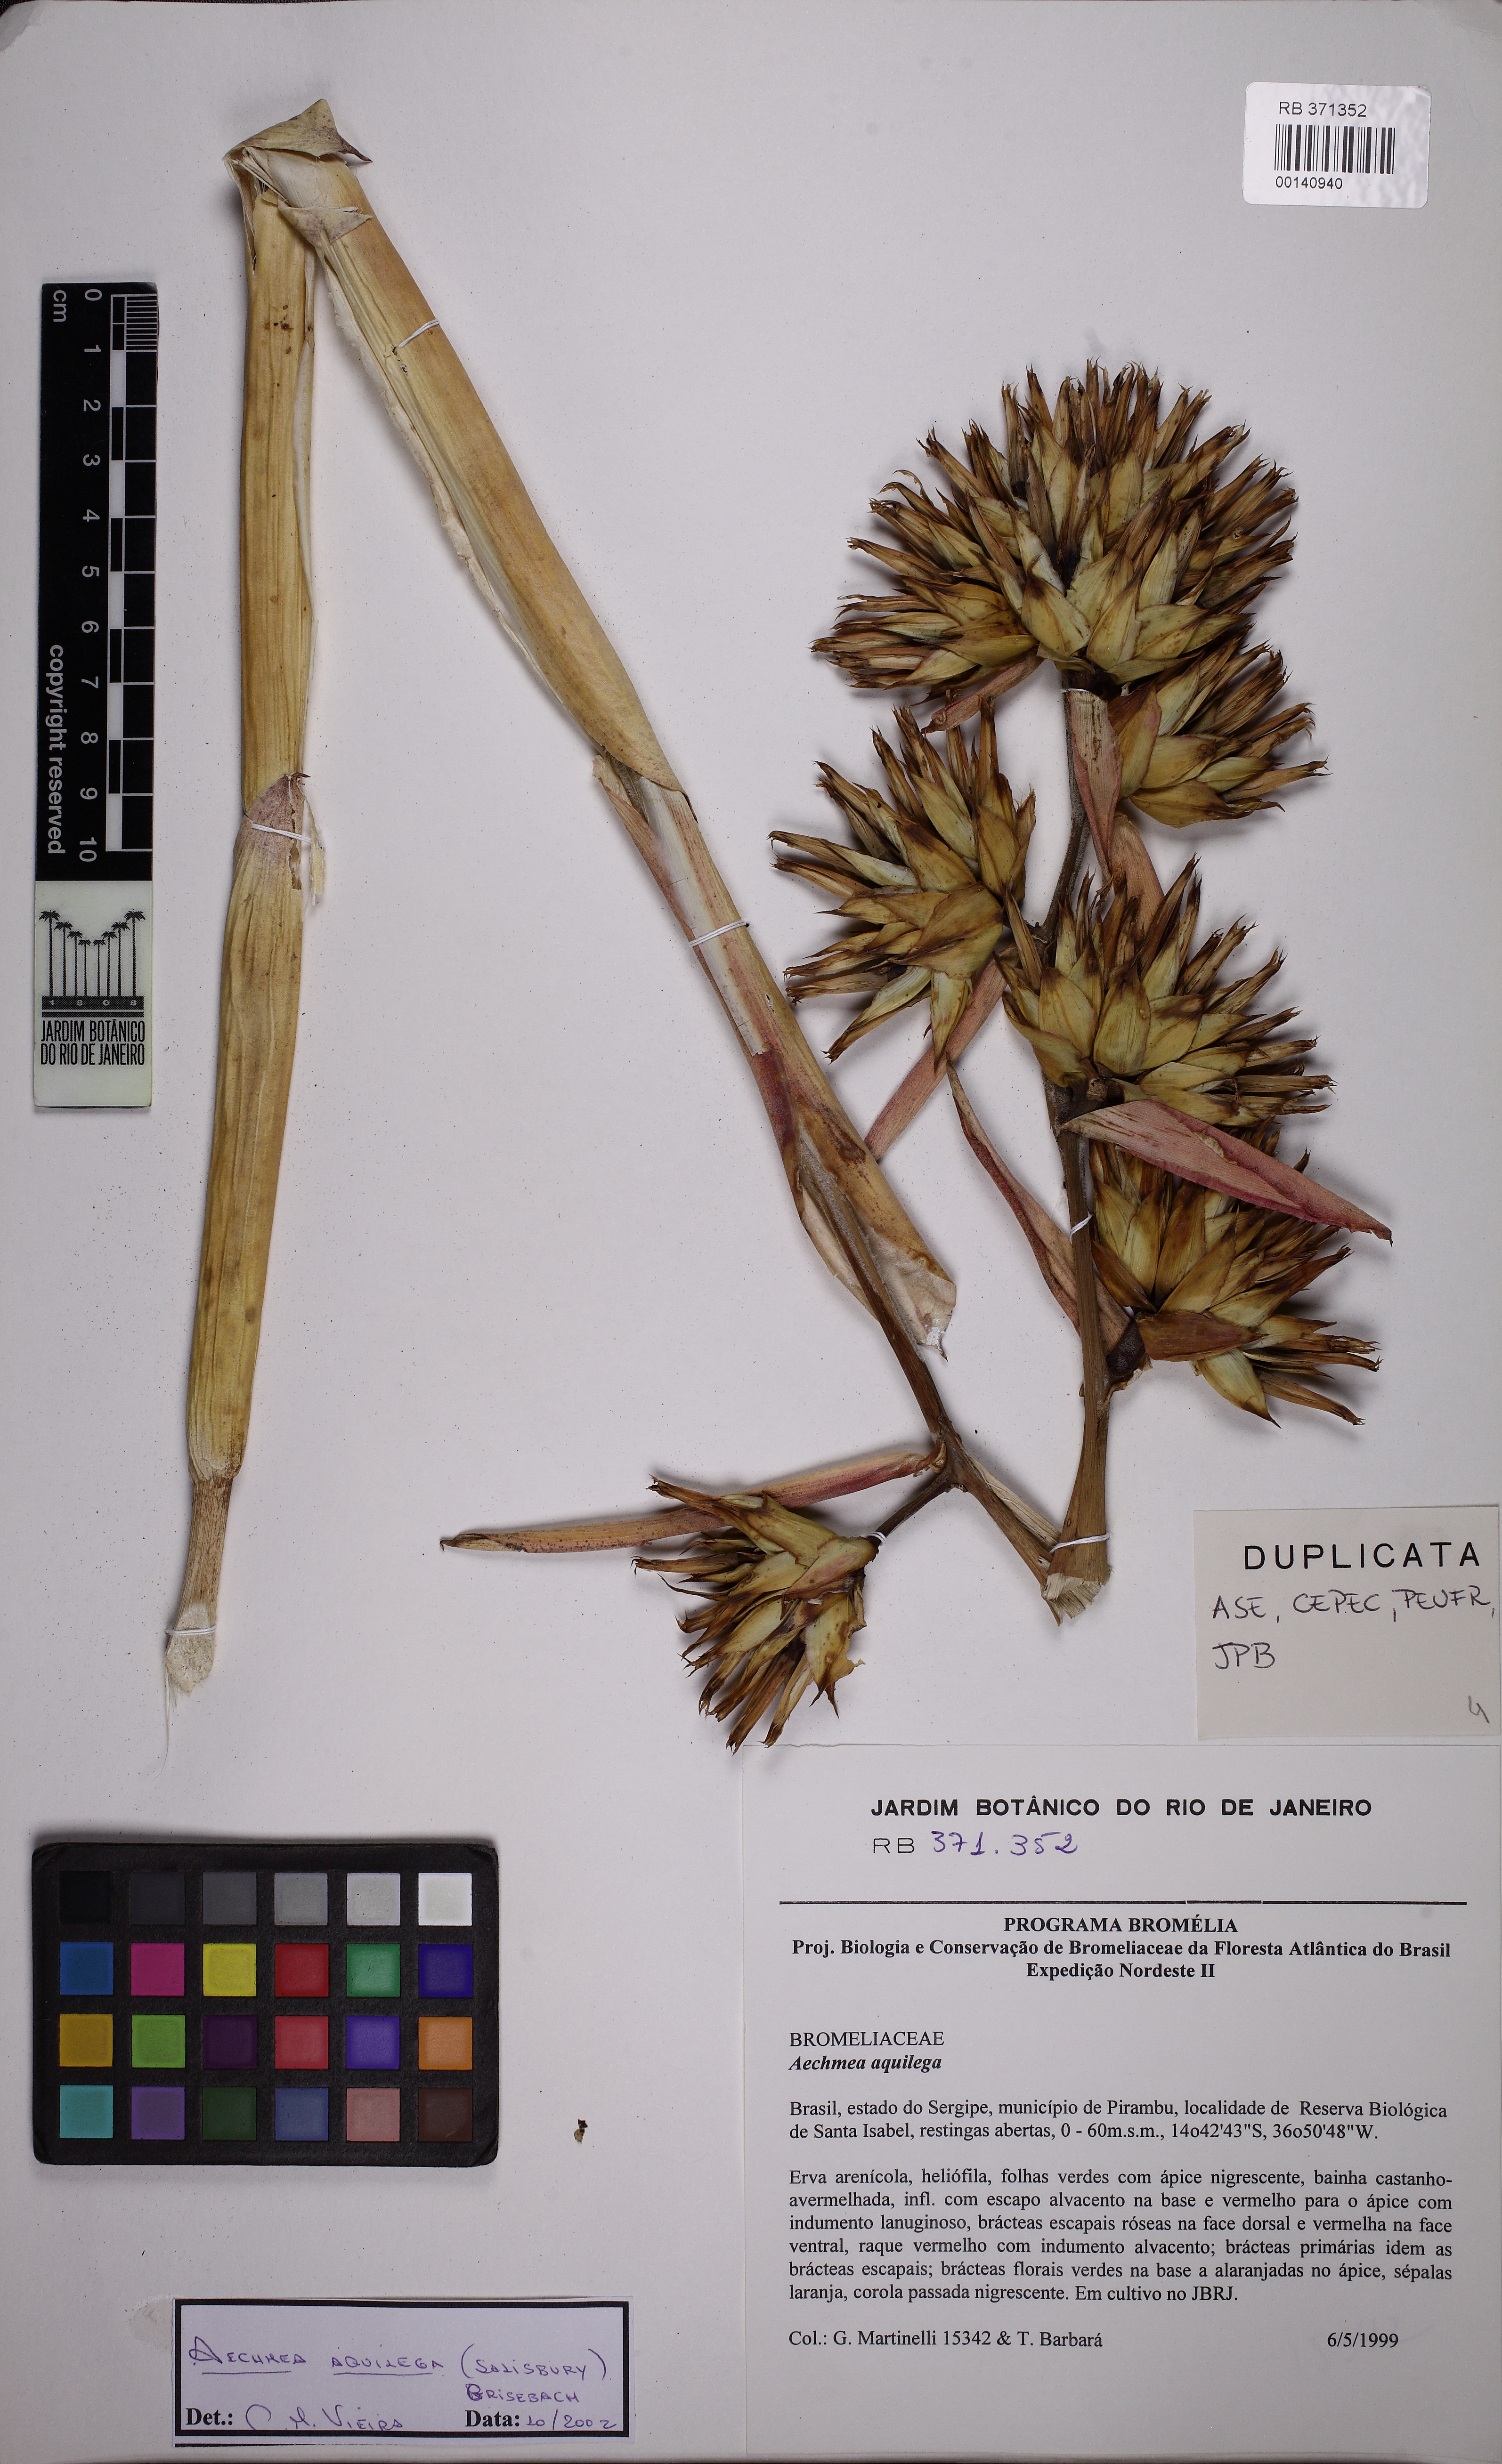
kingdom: Plantae
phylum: Tracheophyta
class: Liliopsida
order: Poales
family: Bromeliaceae
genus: Aechmea
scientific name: Aechmea aquilega
